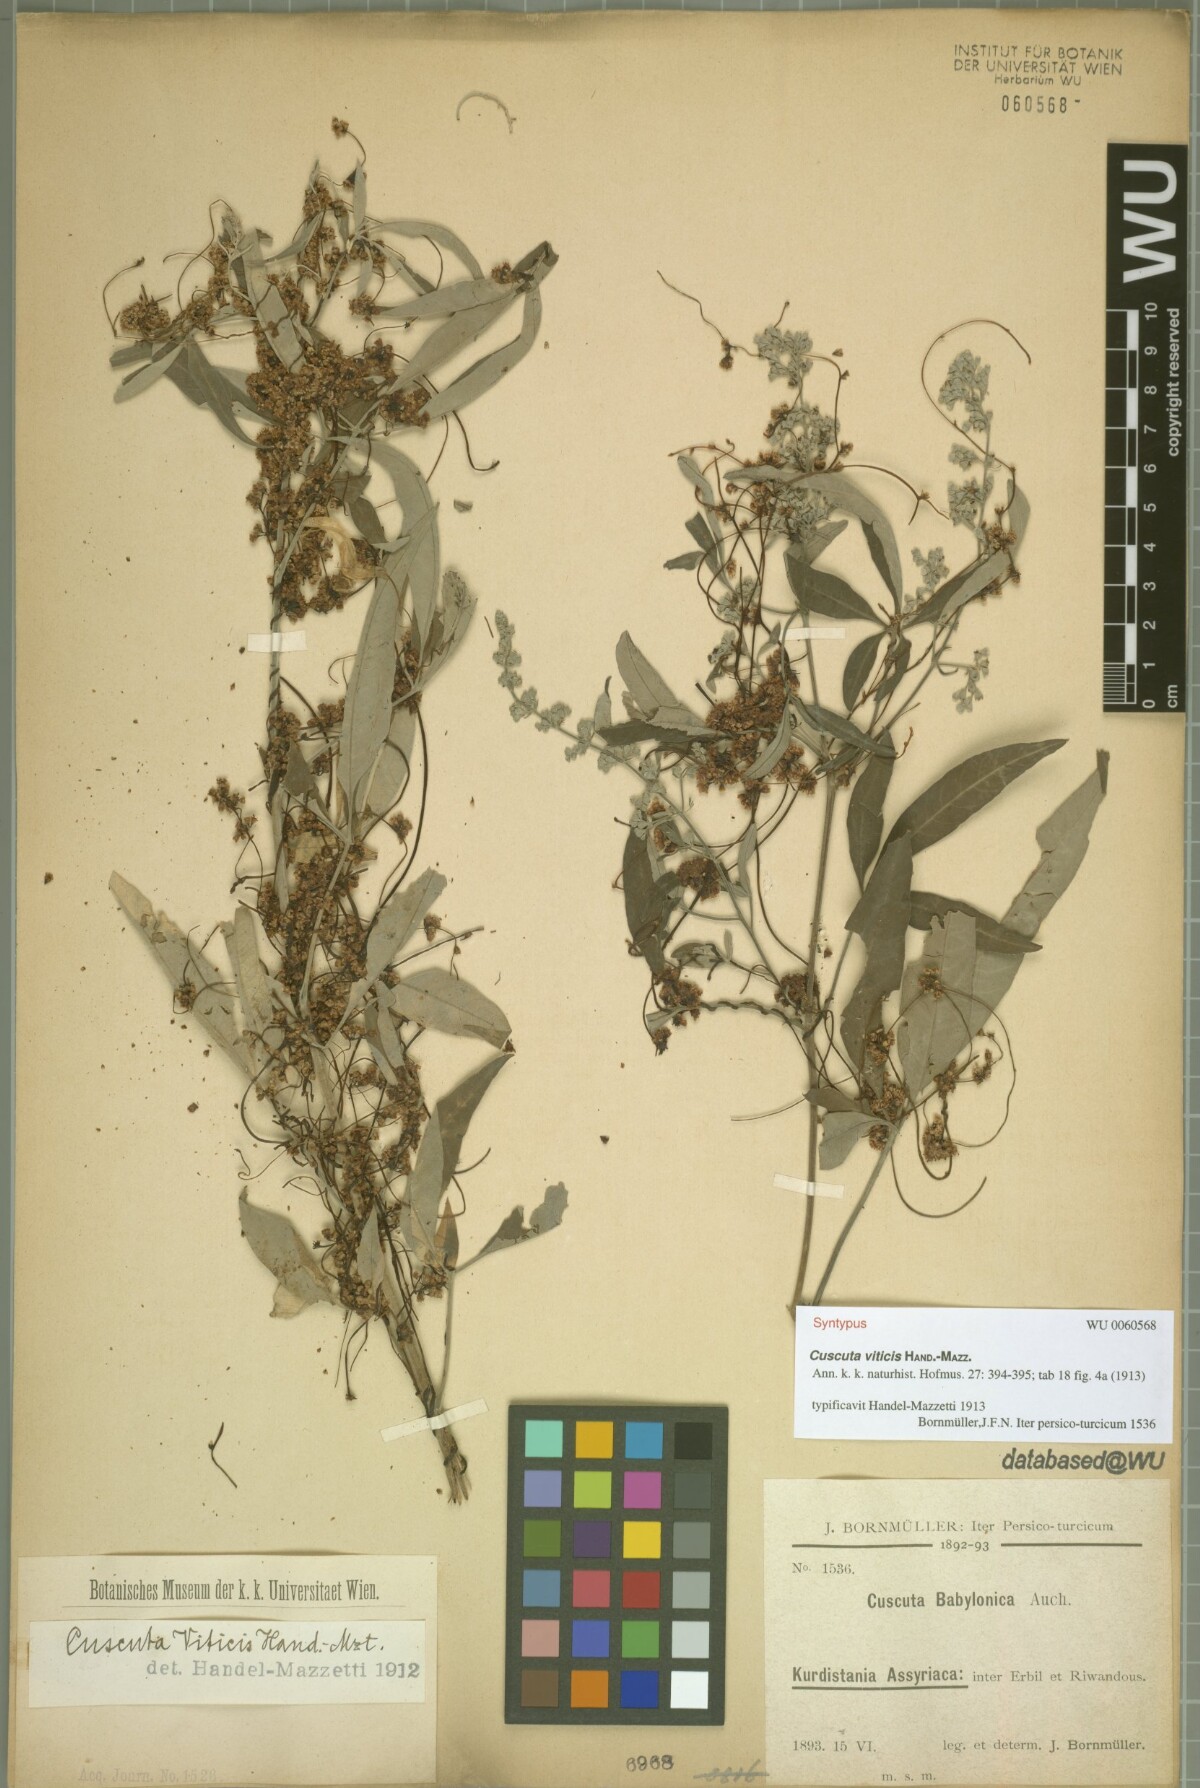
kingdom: Plantae
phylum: Tracheophyta
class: Magnoliopsida
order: Solanales
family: Convolvulaceae
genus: Cuscuta
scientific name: Cuscuta babylonica
